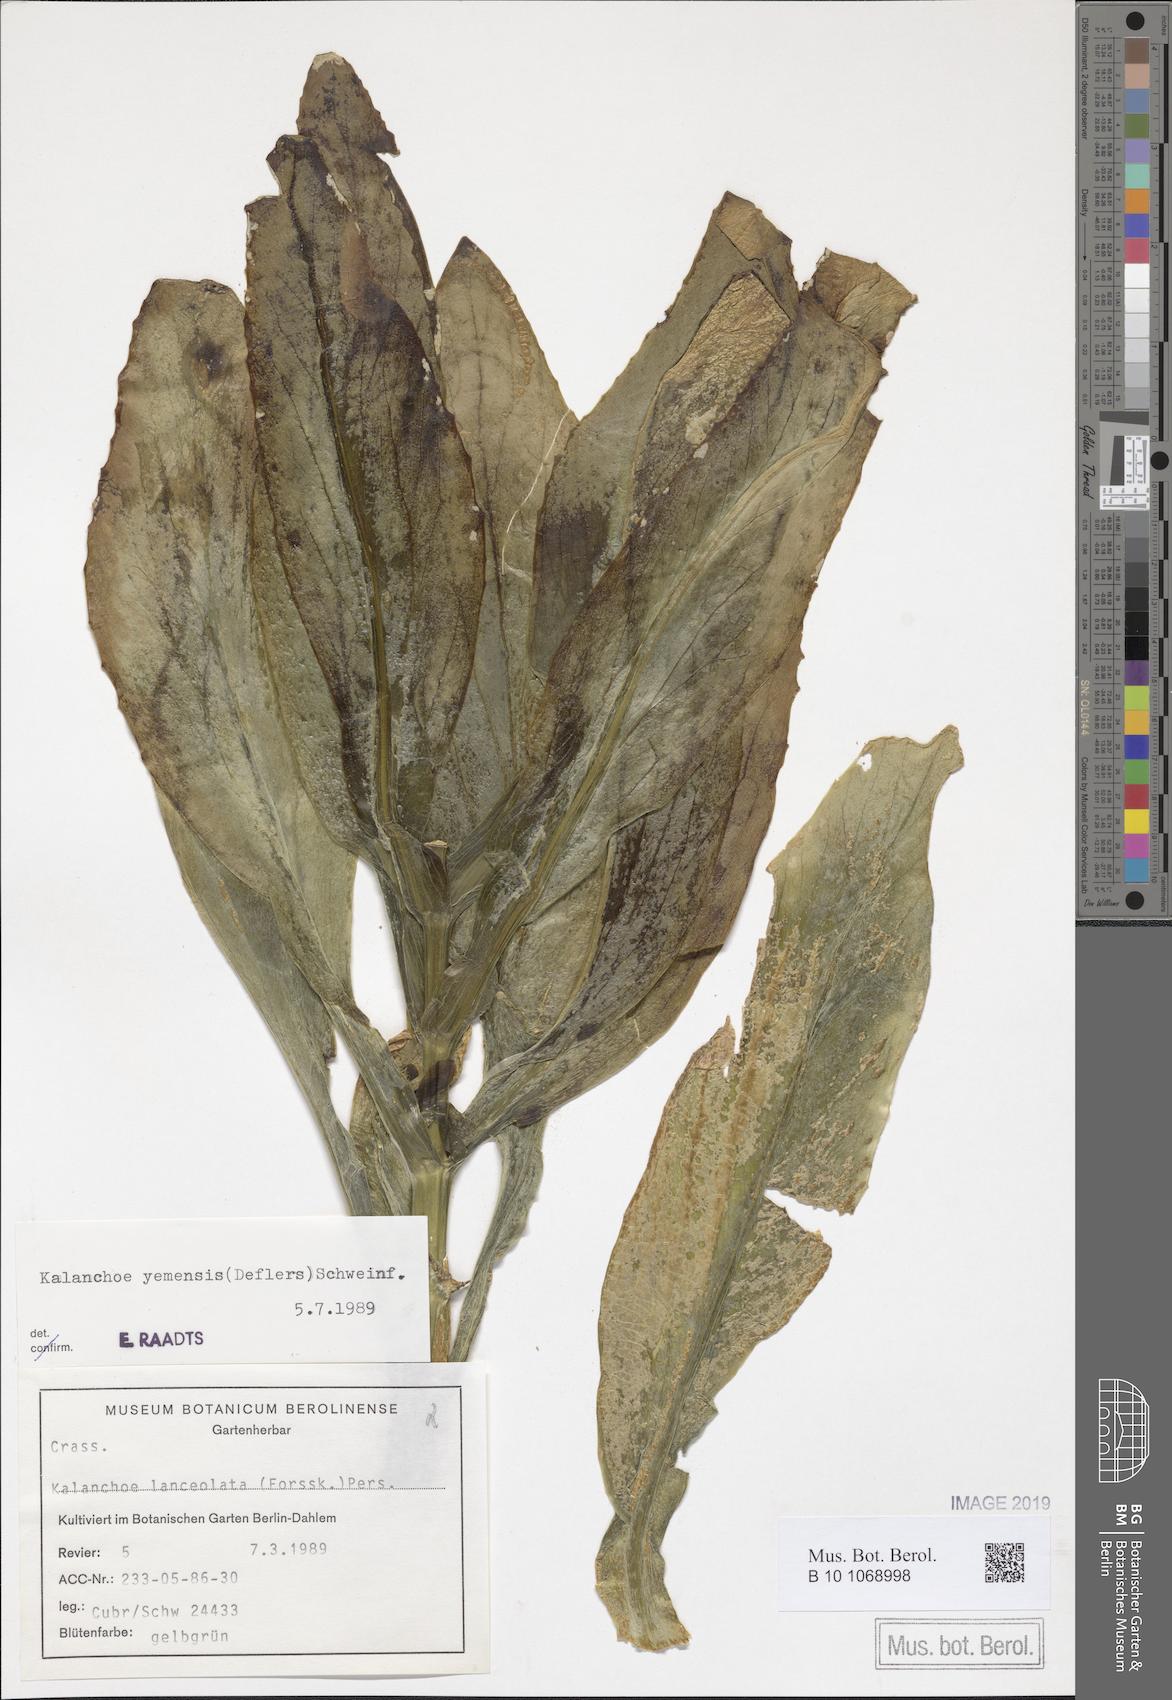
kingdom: Plantae
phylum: Tracheophyta
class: Magnoliopsida
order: Saxifragales
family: Crassulaceae
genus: Kalanchoe
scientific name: Kalanchoe yemensis
